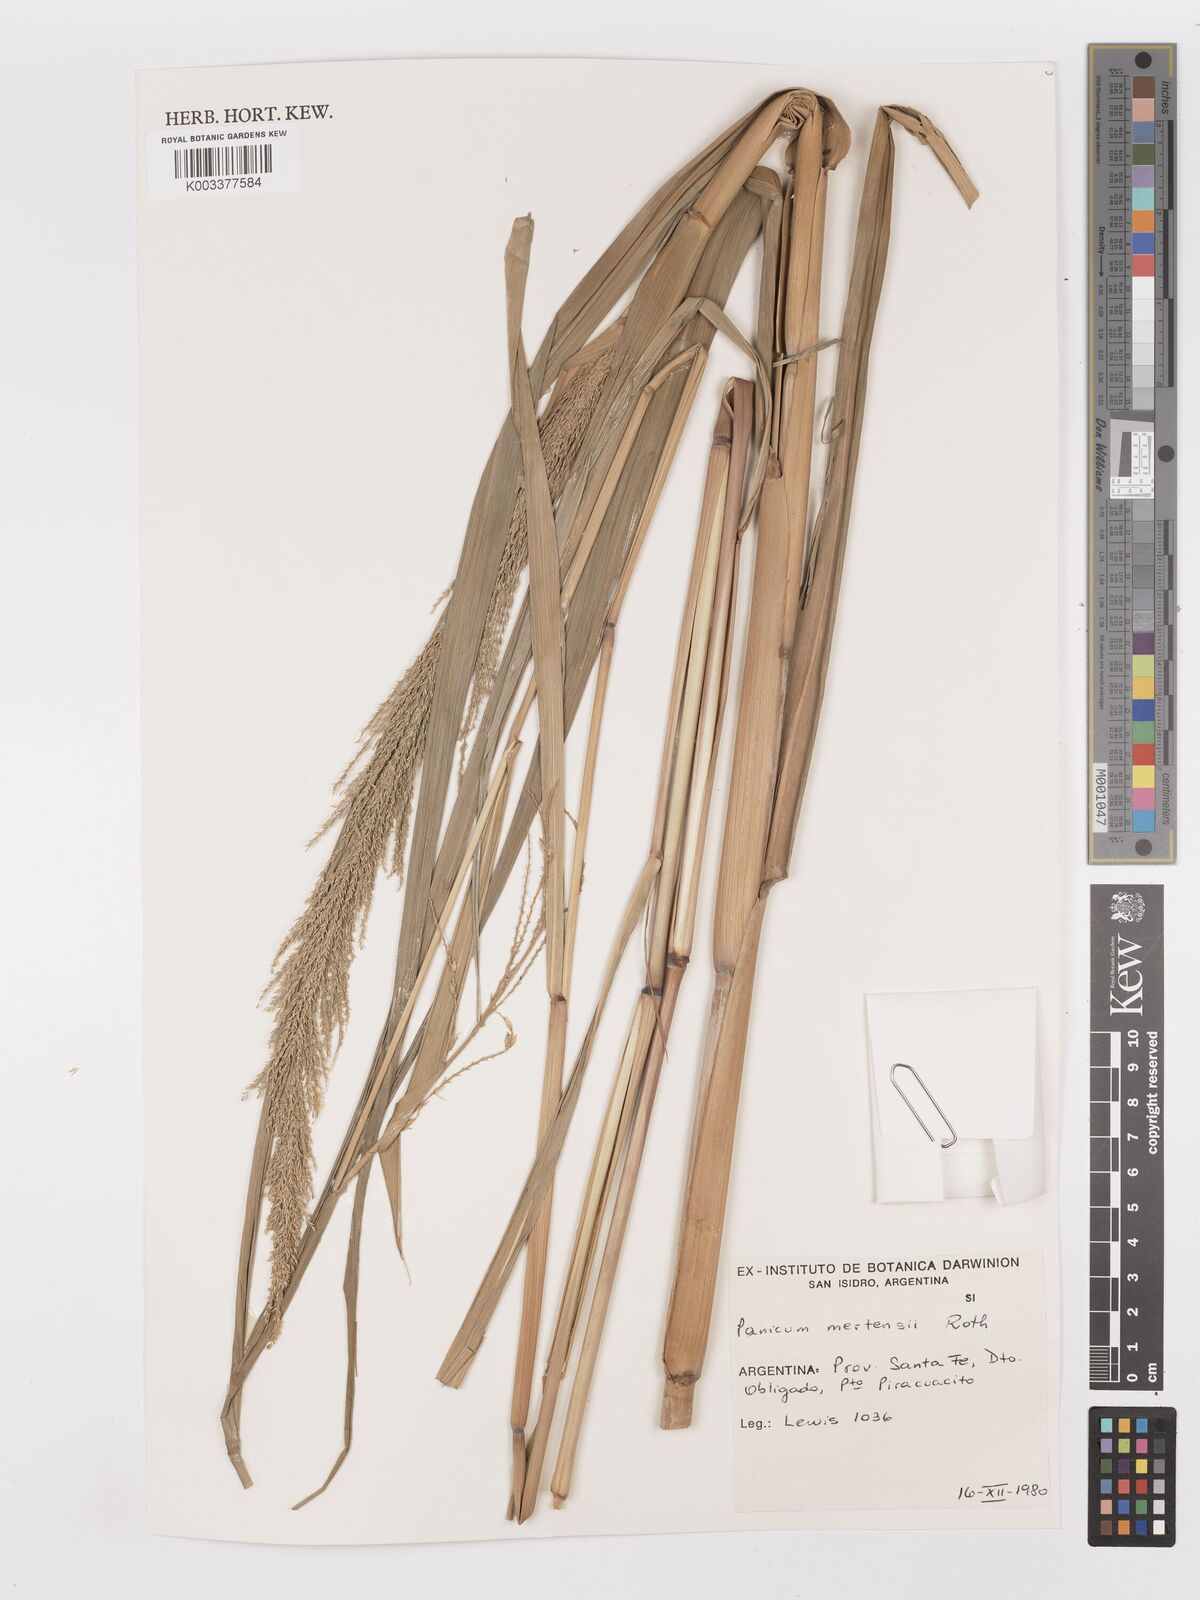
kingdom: Plantae
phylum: Tracheophyta
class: Liliopsida
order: Poales
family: Poaceae
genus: Hymenachne
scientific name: Hymenachne grumosa
